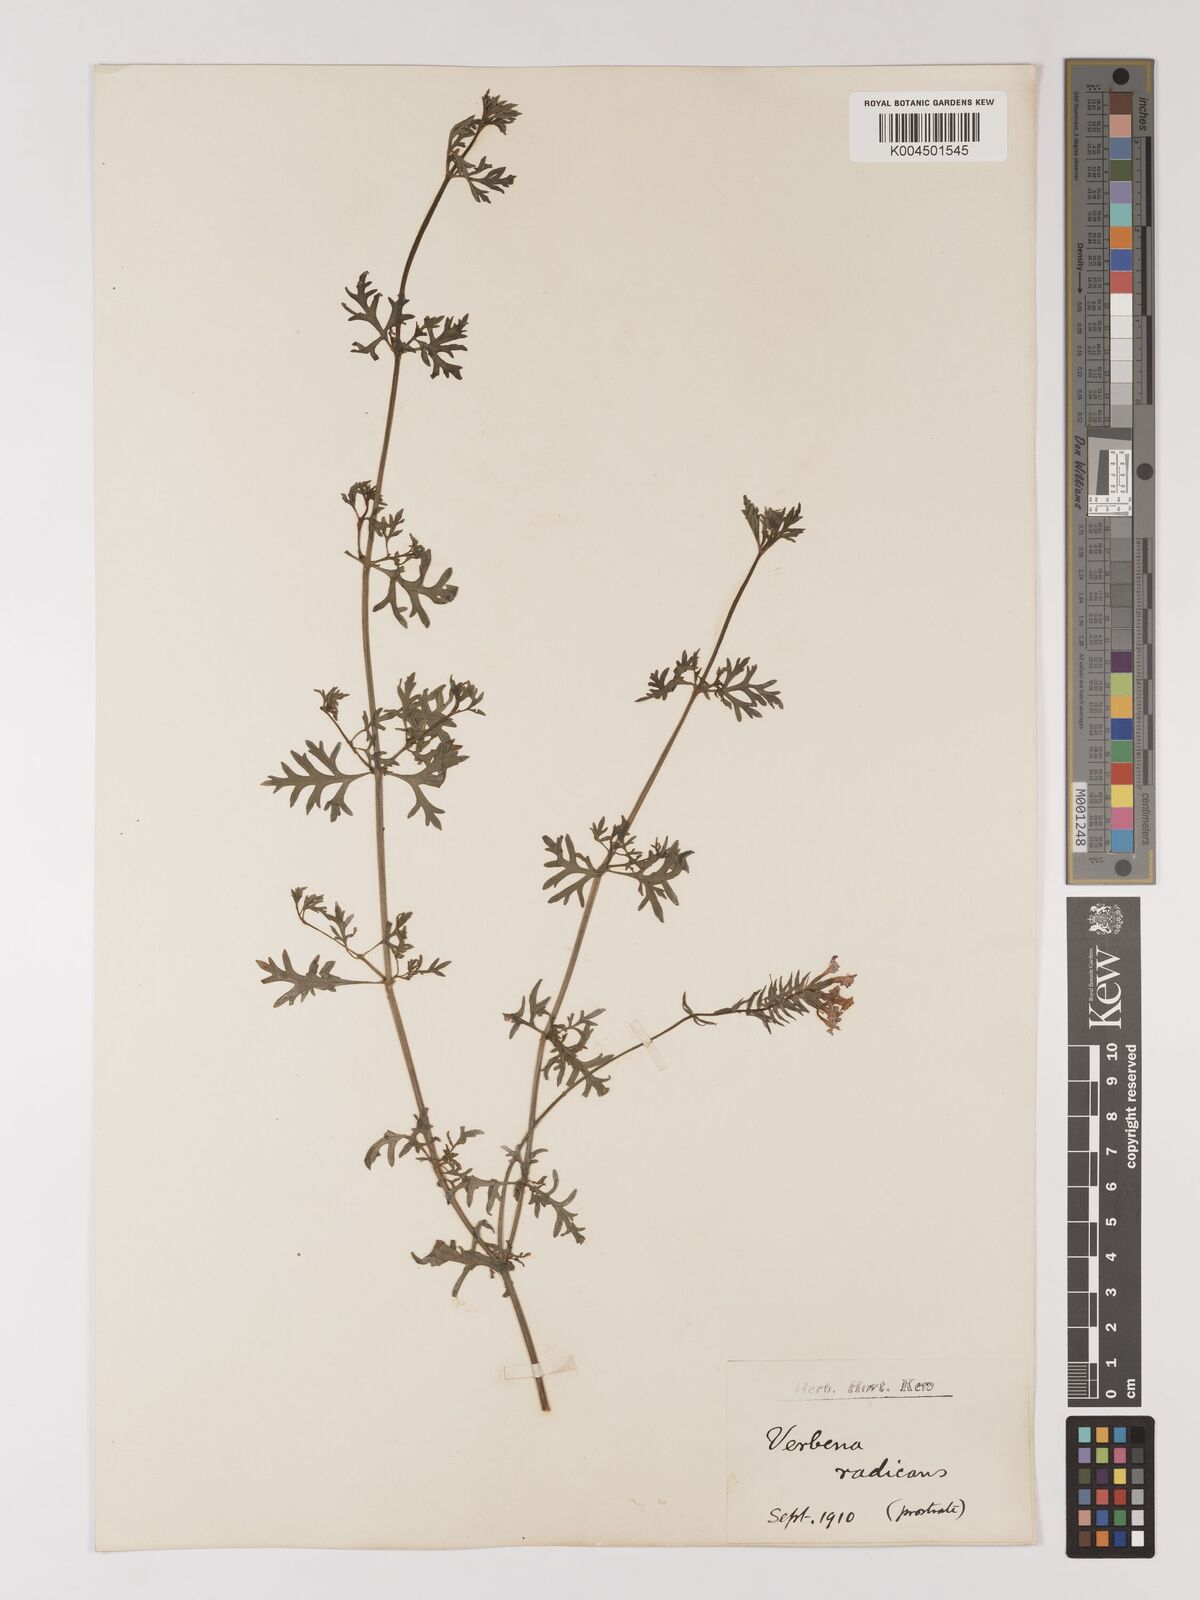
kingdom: Plantae
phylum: Tracheophyta
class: Magnoliopsida
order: Lamiales
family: Verbenaceae
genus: Verbena
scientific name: Verbena radicata
